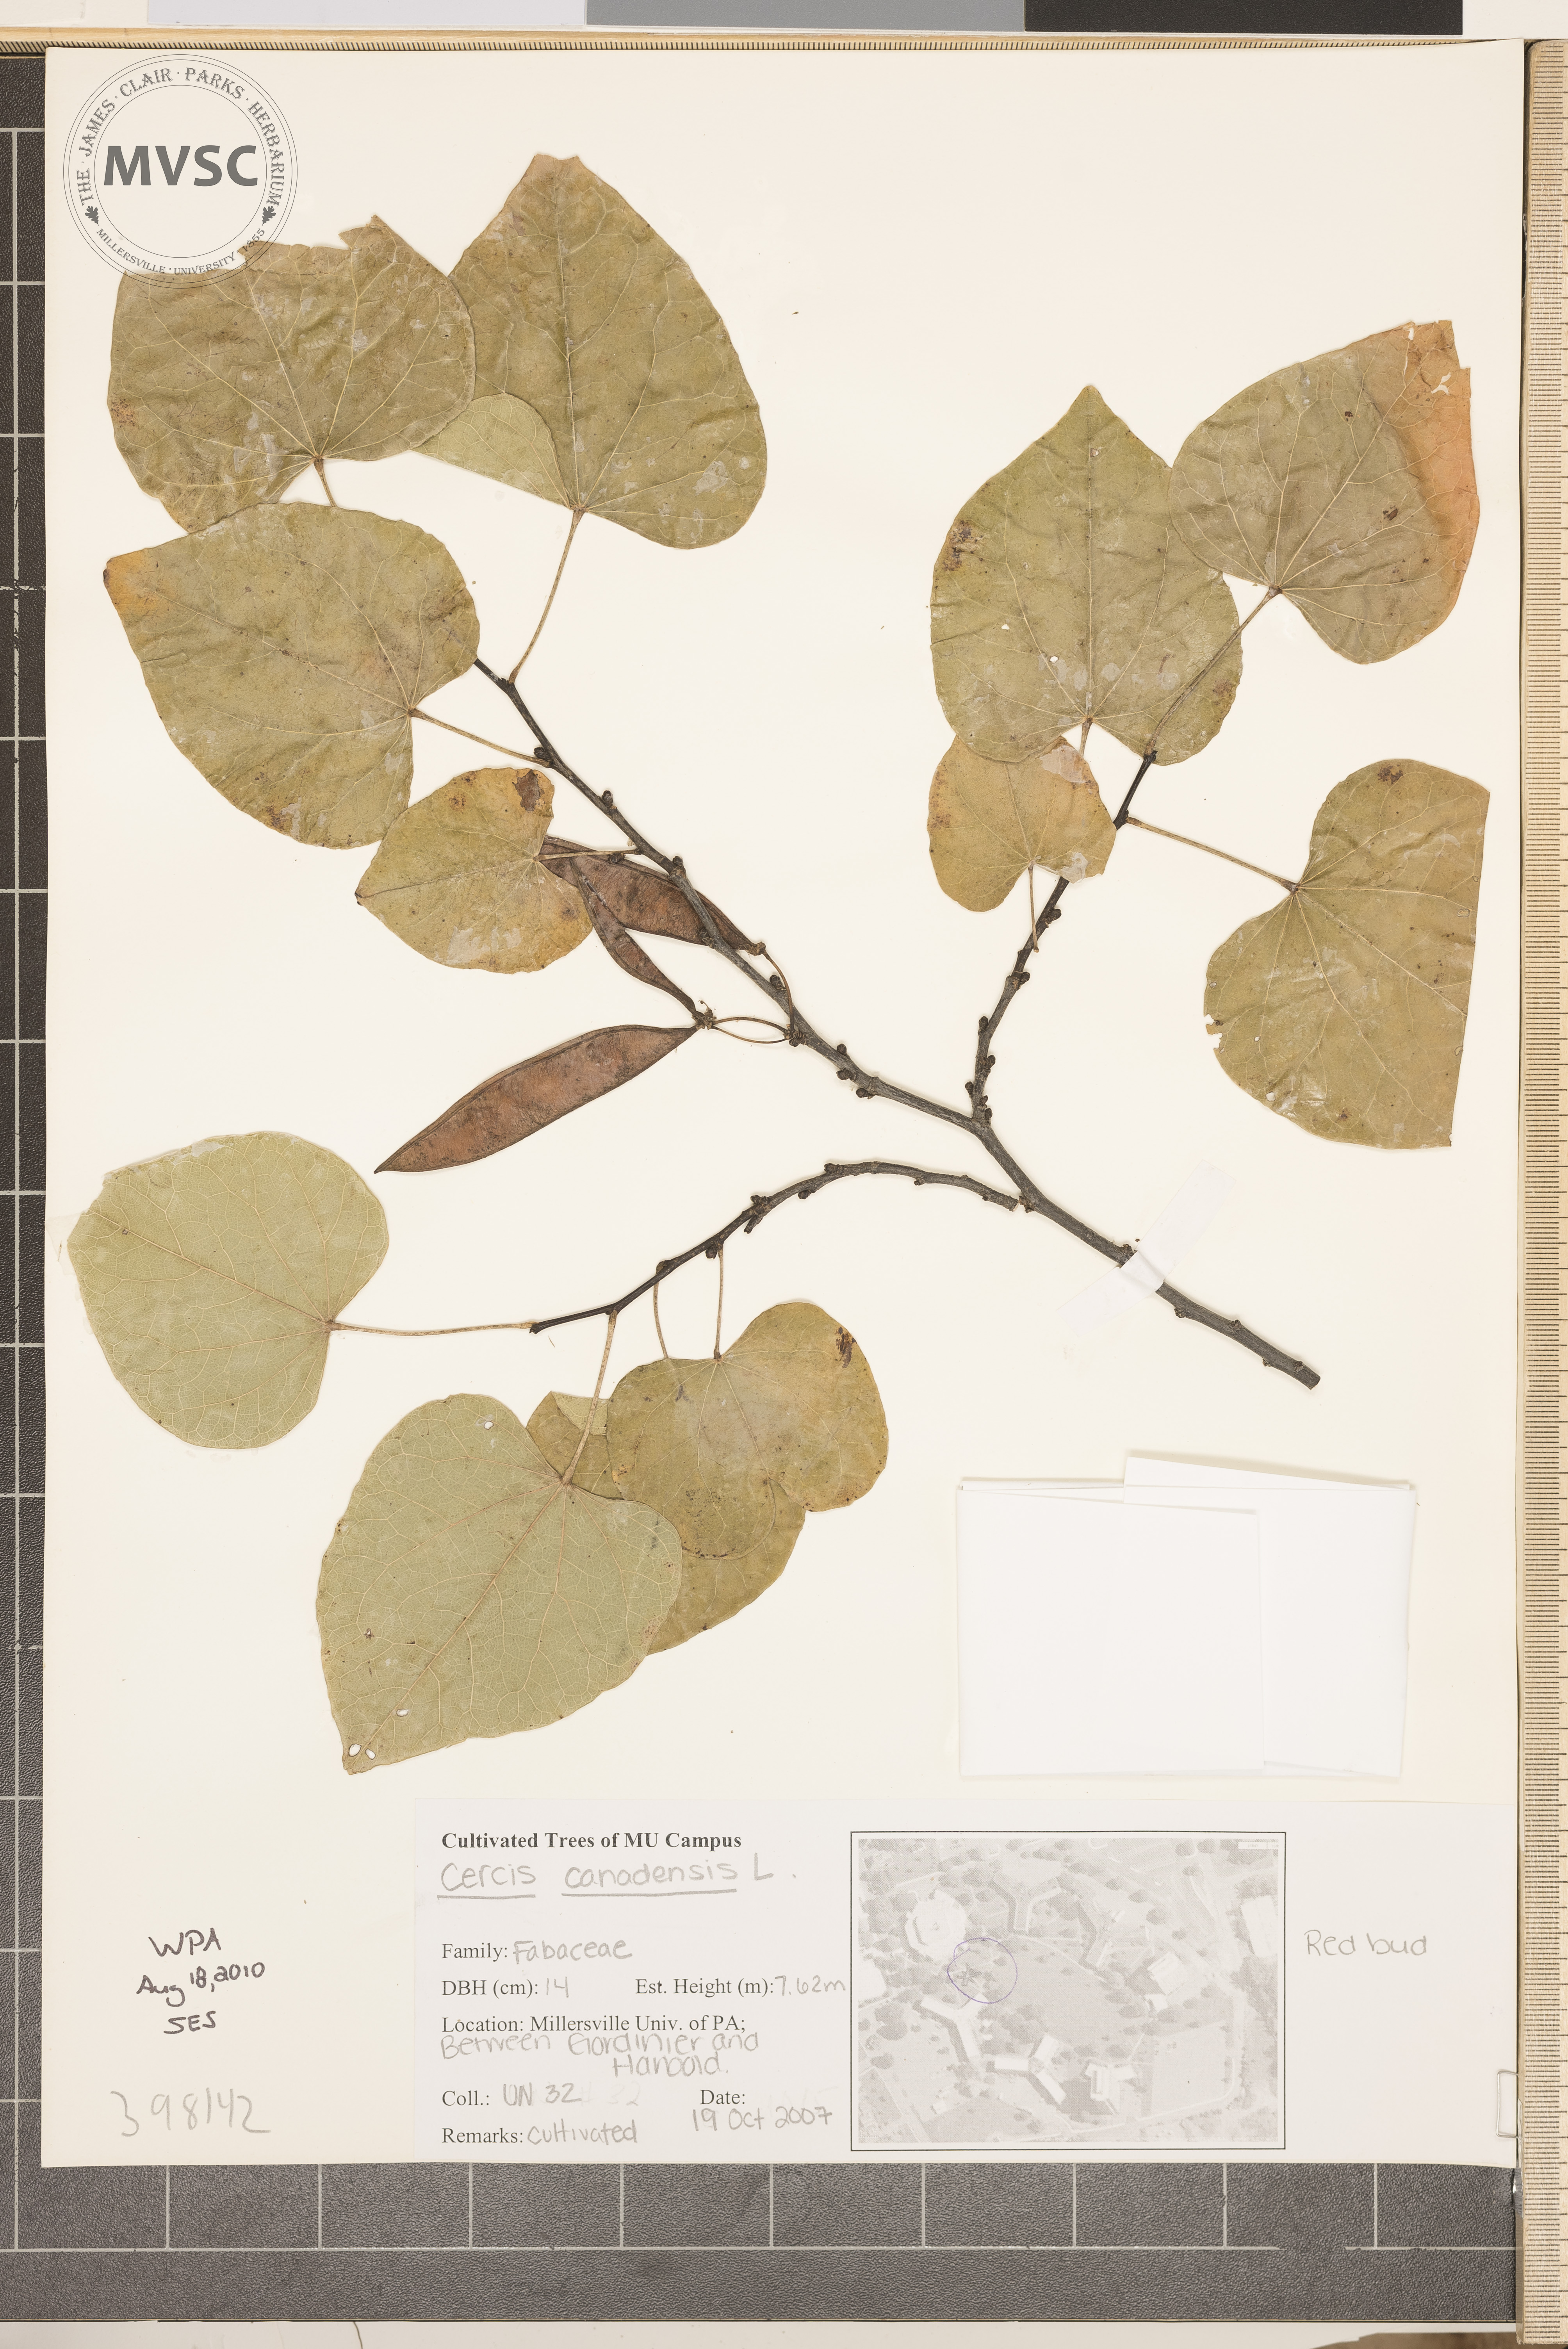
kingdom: Plantae
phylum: Tracheophyta
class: Magnoliopsida
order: Fabales
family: Fabaceae
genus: Cercis
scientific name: Cercis canadensis
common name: Redbud
